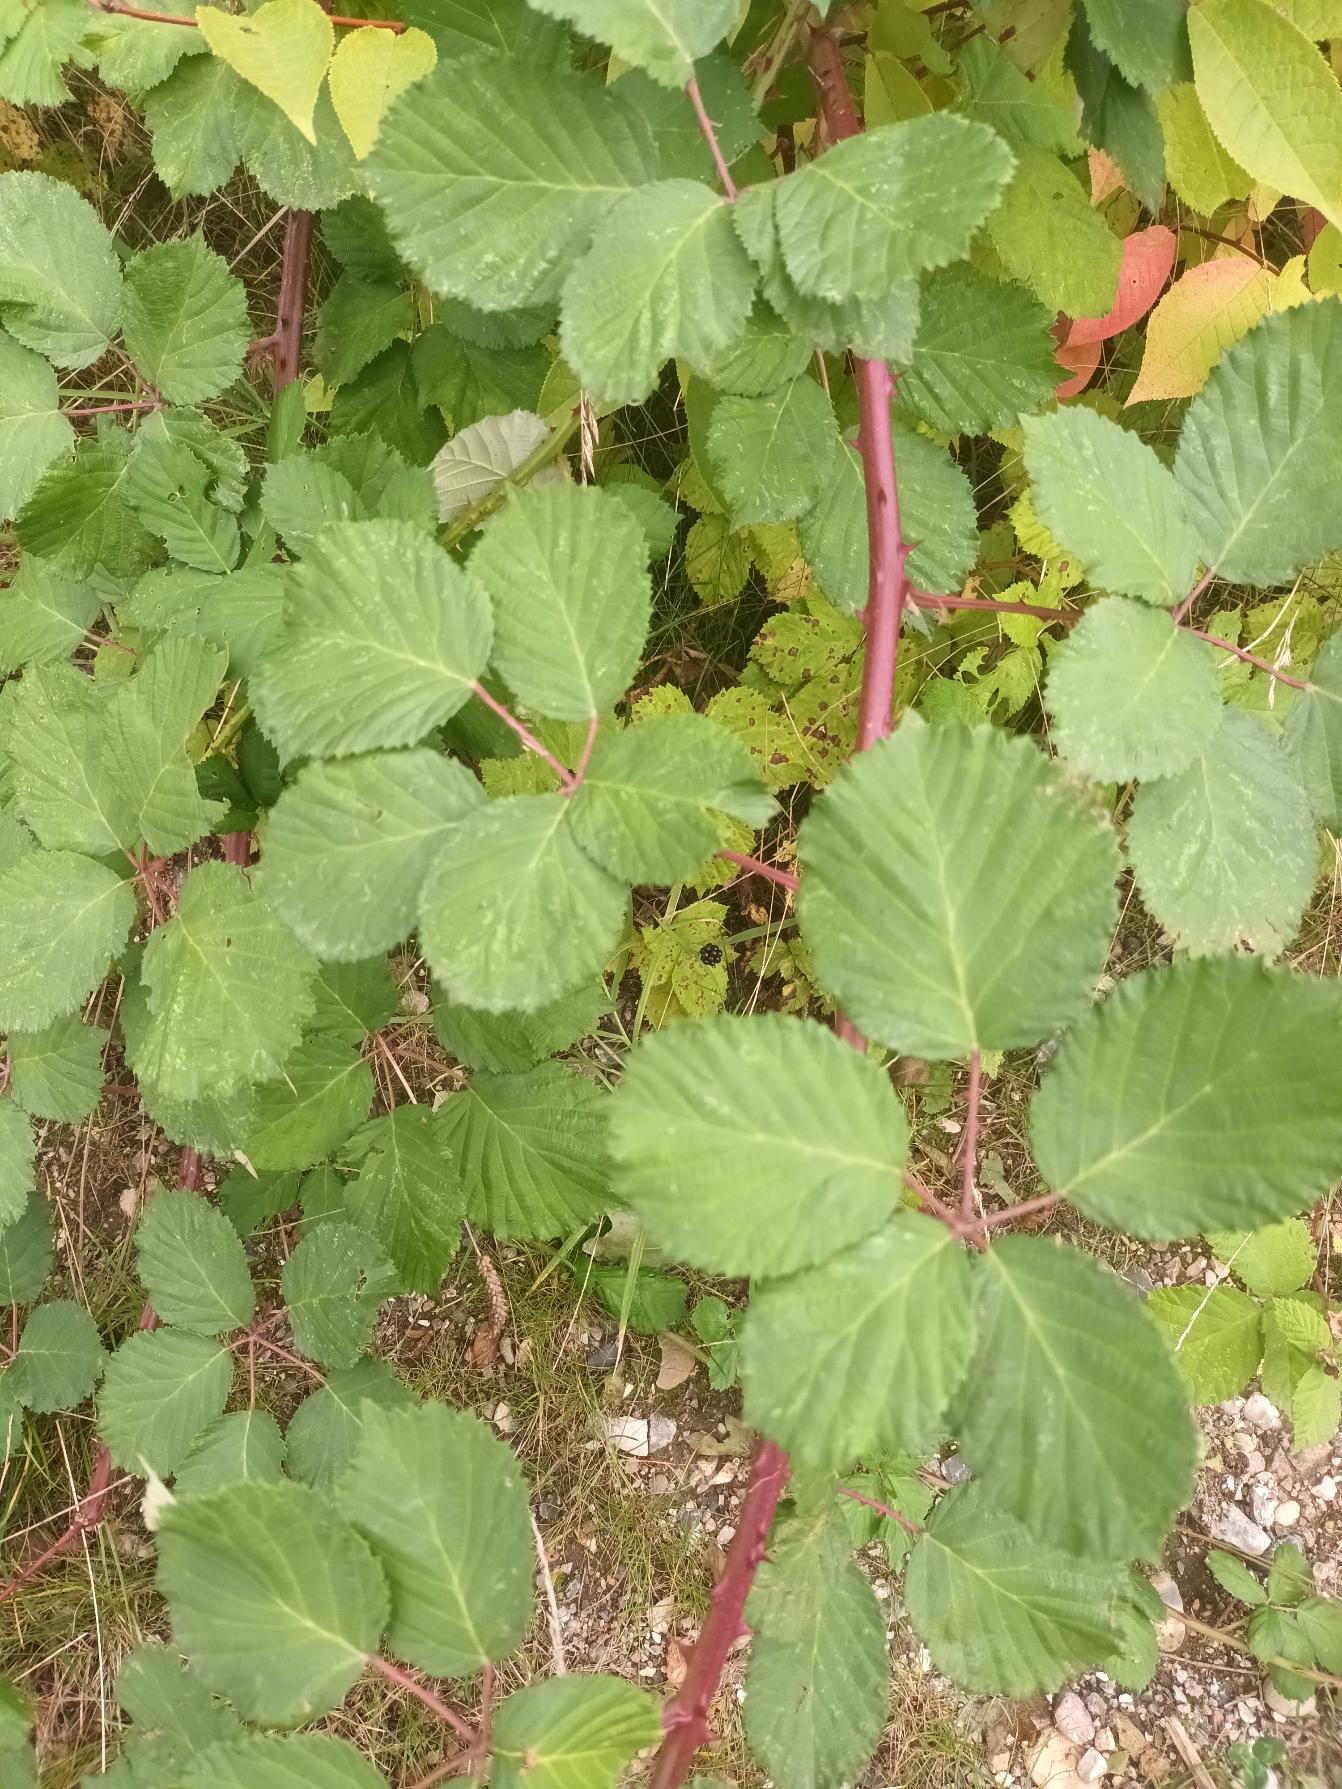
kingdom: Plantae
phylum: Tracheophyta
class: Magnoliopsida
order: Rosales
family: Rosaceae
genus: Rubus
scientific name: Rubus armeniacus
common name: Armensk brombær
